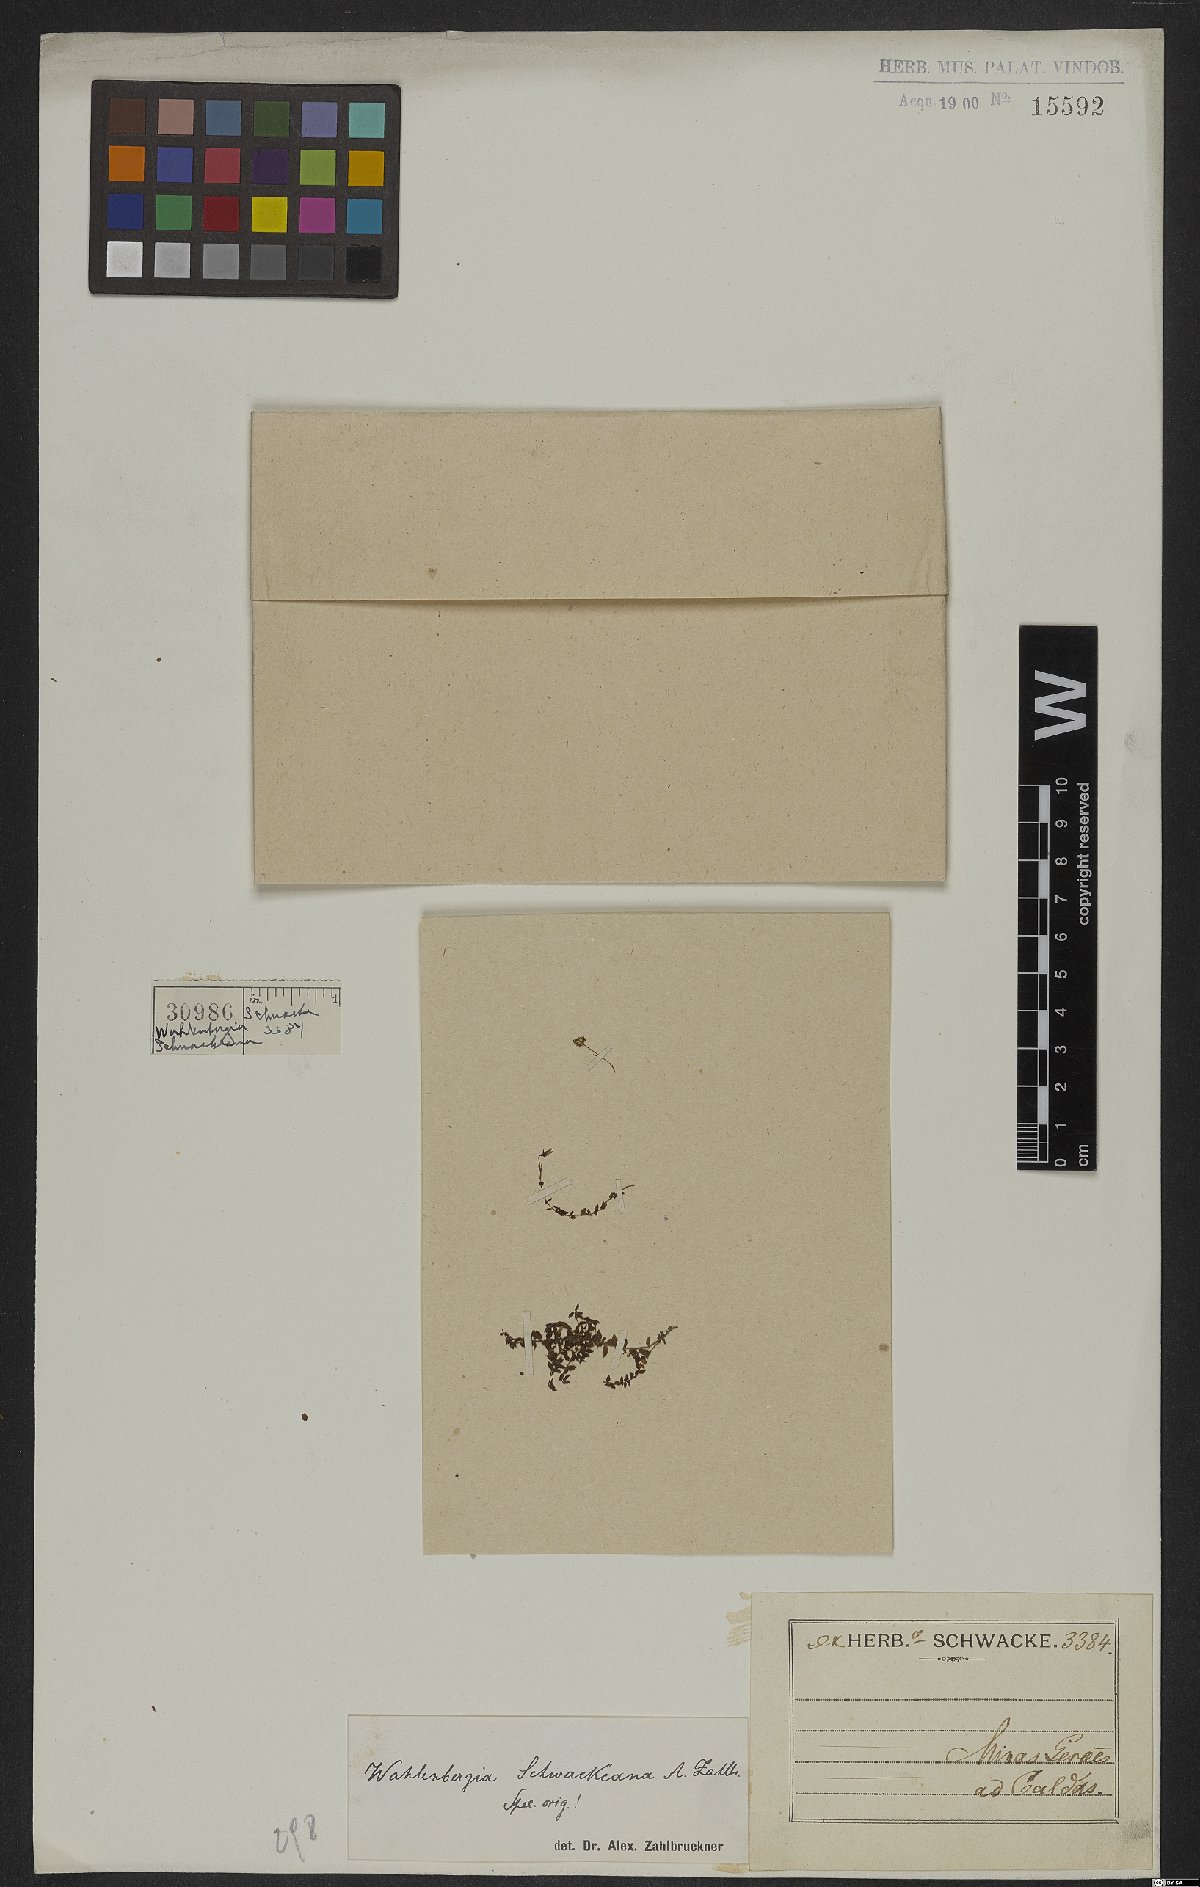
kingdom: Plantae
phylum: Tracheophyta
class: Magnoliopsida
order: Asterales
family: Campanulaceae
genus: Wahlenbergia
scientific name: Wahlenbergia schwackeana
